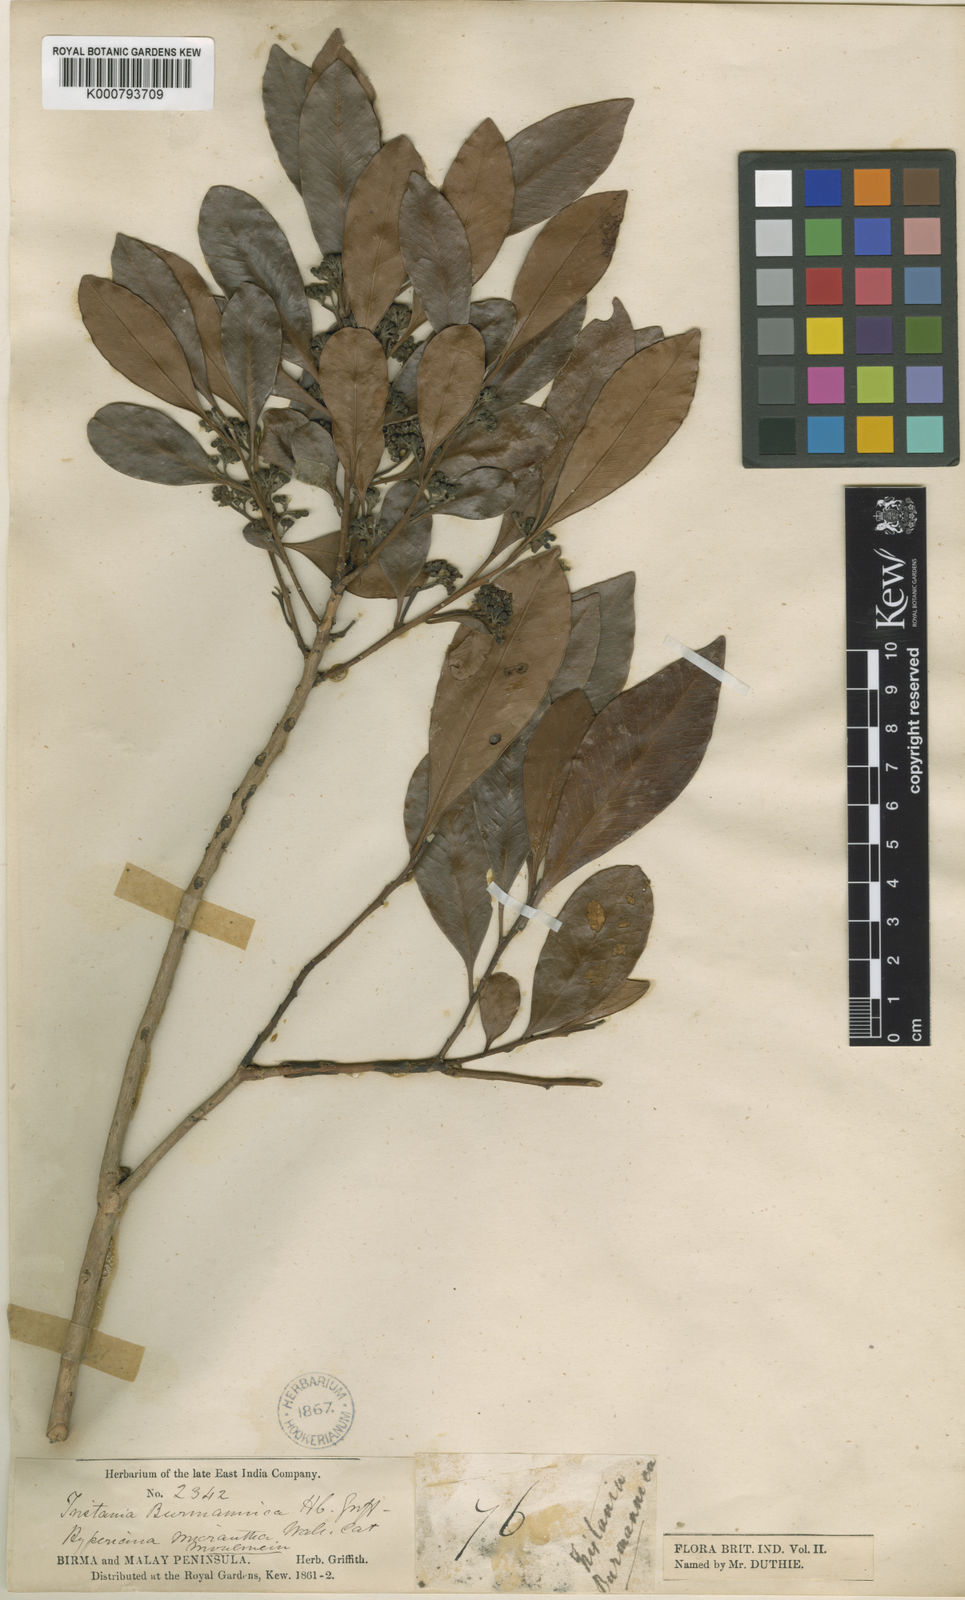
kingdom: Plantae
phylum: Tracheophyta
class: Magnoliopsida
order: Myrtales
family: Myrtaceae
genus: Tristaniopsis
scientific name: Tristaniopsis burmanica
